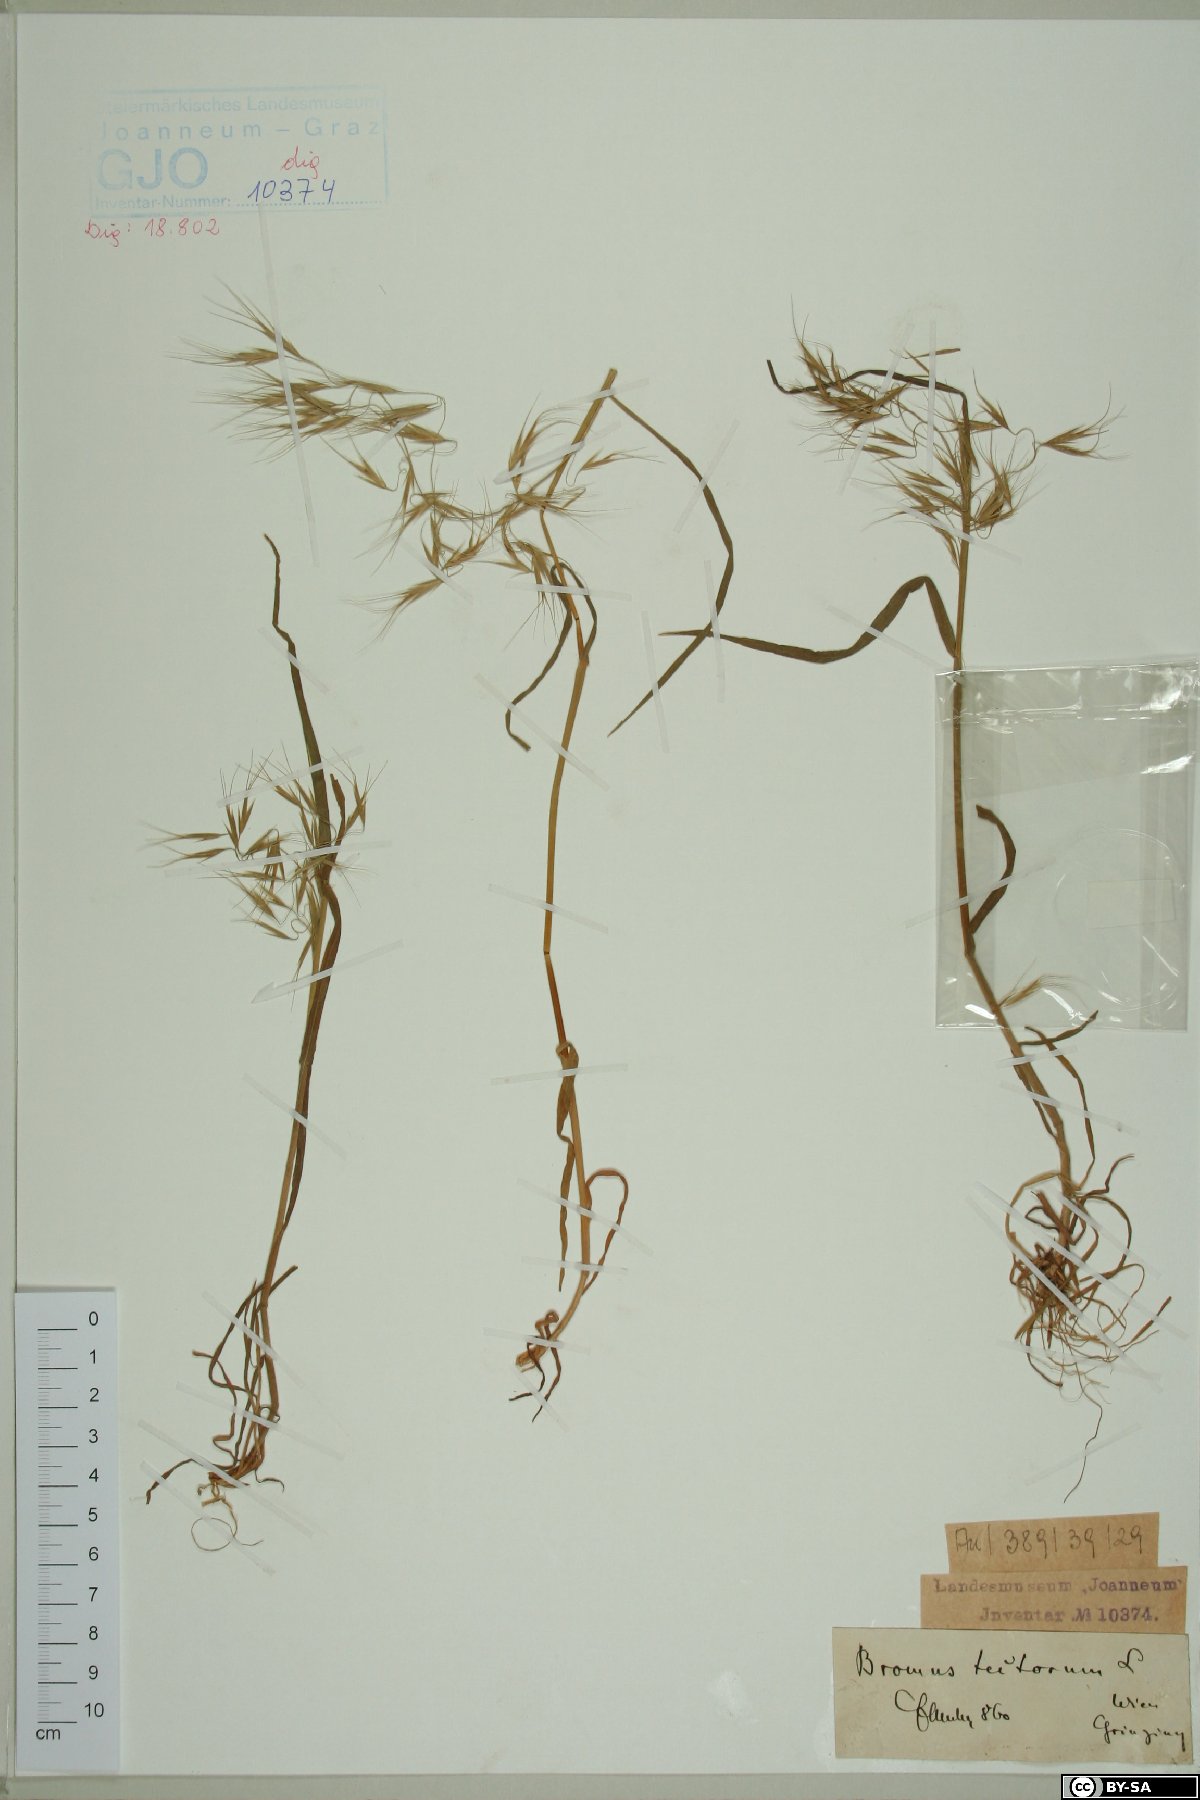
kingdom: Plantae
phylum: Tracheophyta
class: Liliopsida
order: Poales
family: Poaceae
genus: Bromus
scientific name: Bromus tectorum
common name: Cheatgrass
